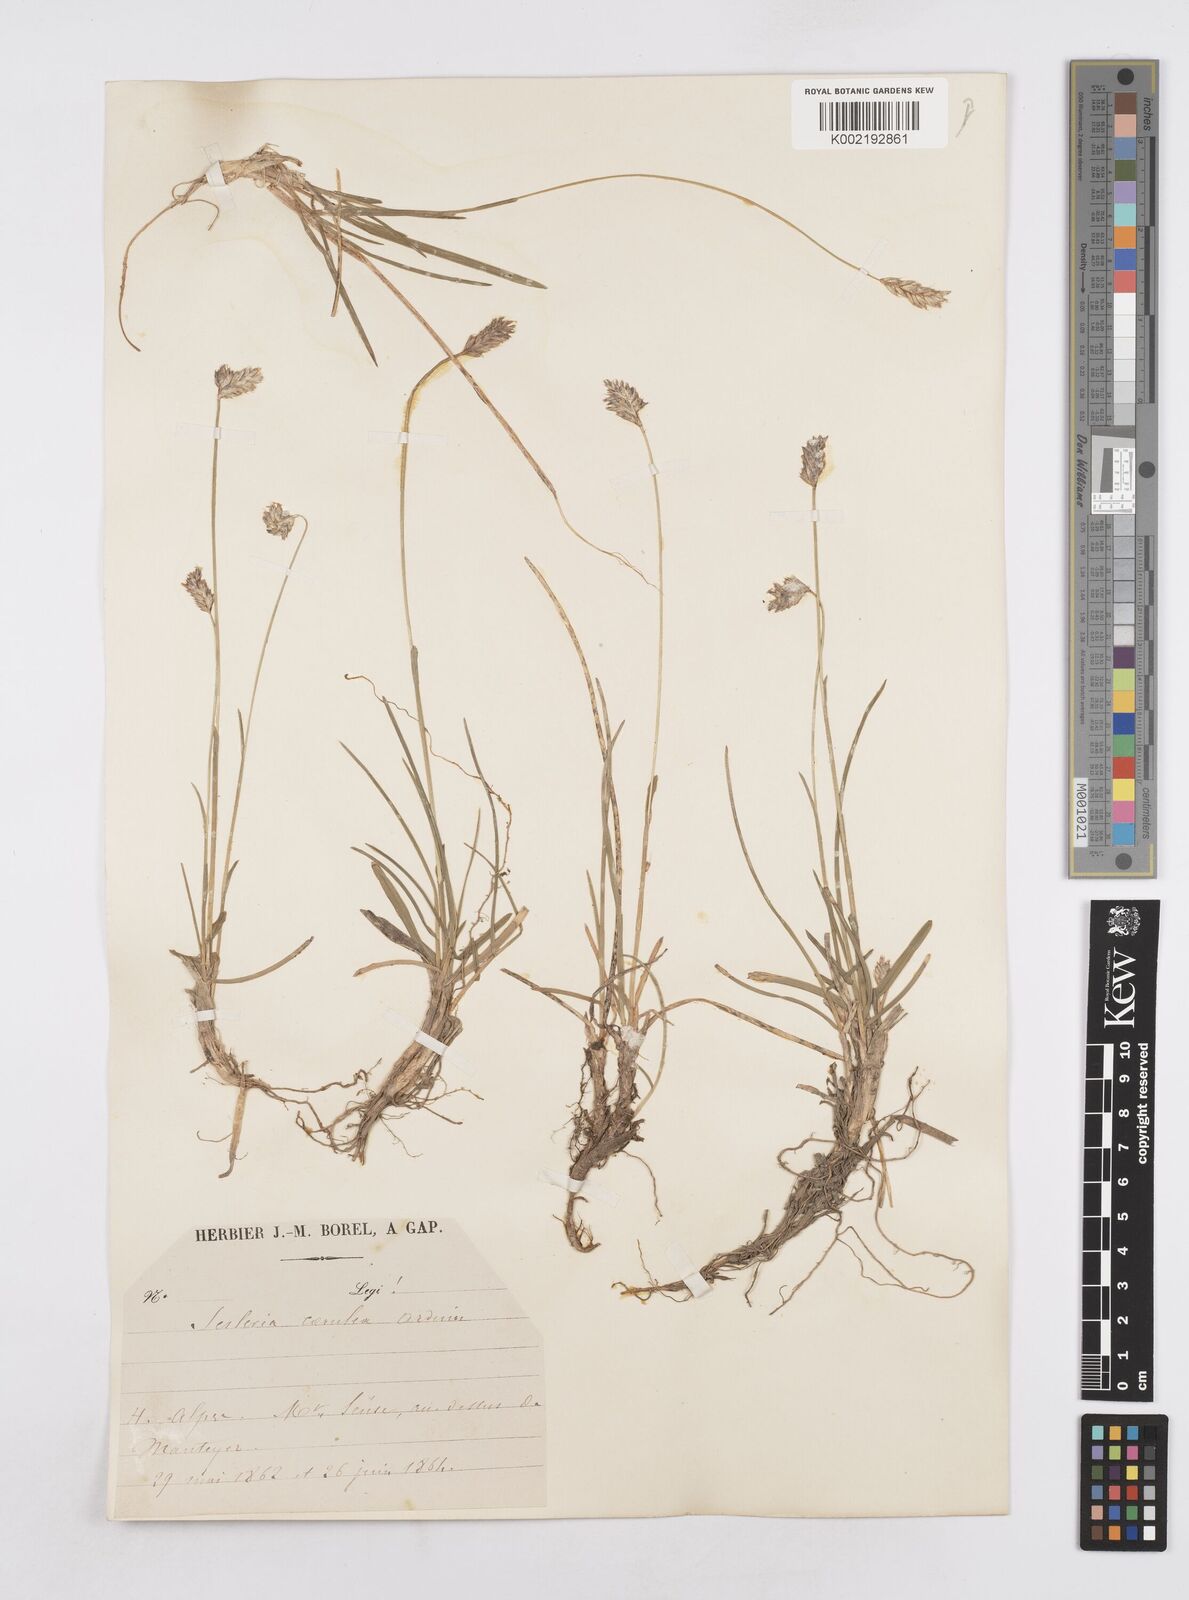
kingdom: Plantae
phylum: Tracheophyta
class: Liliopsida
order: Poales
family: Poaceae
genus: Sesleria
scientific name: Sesleria albicans
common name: Blue moor-grass
